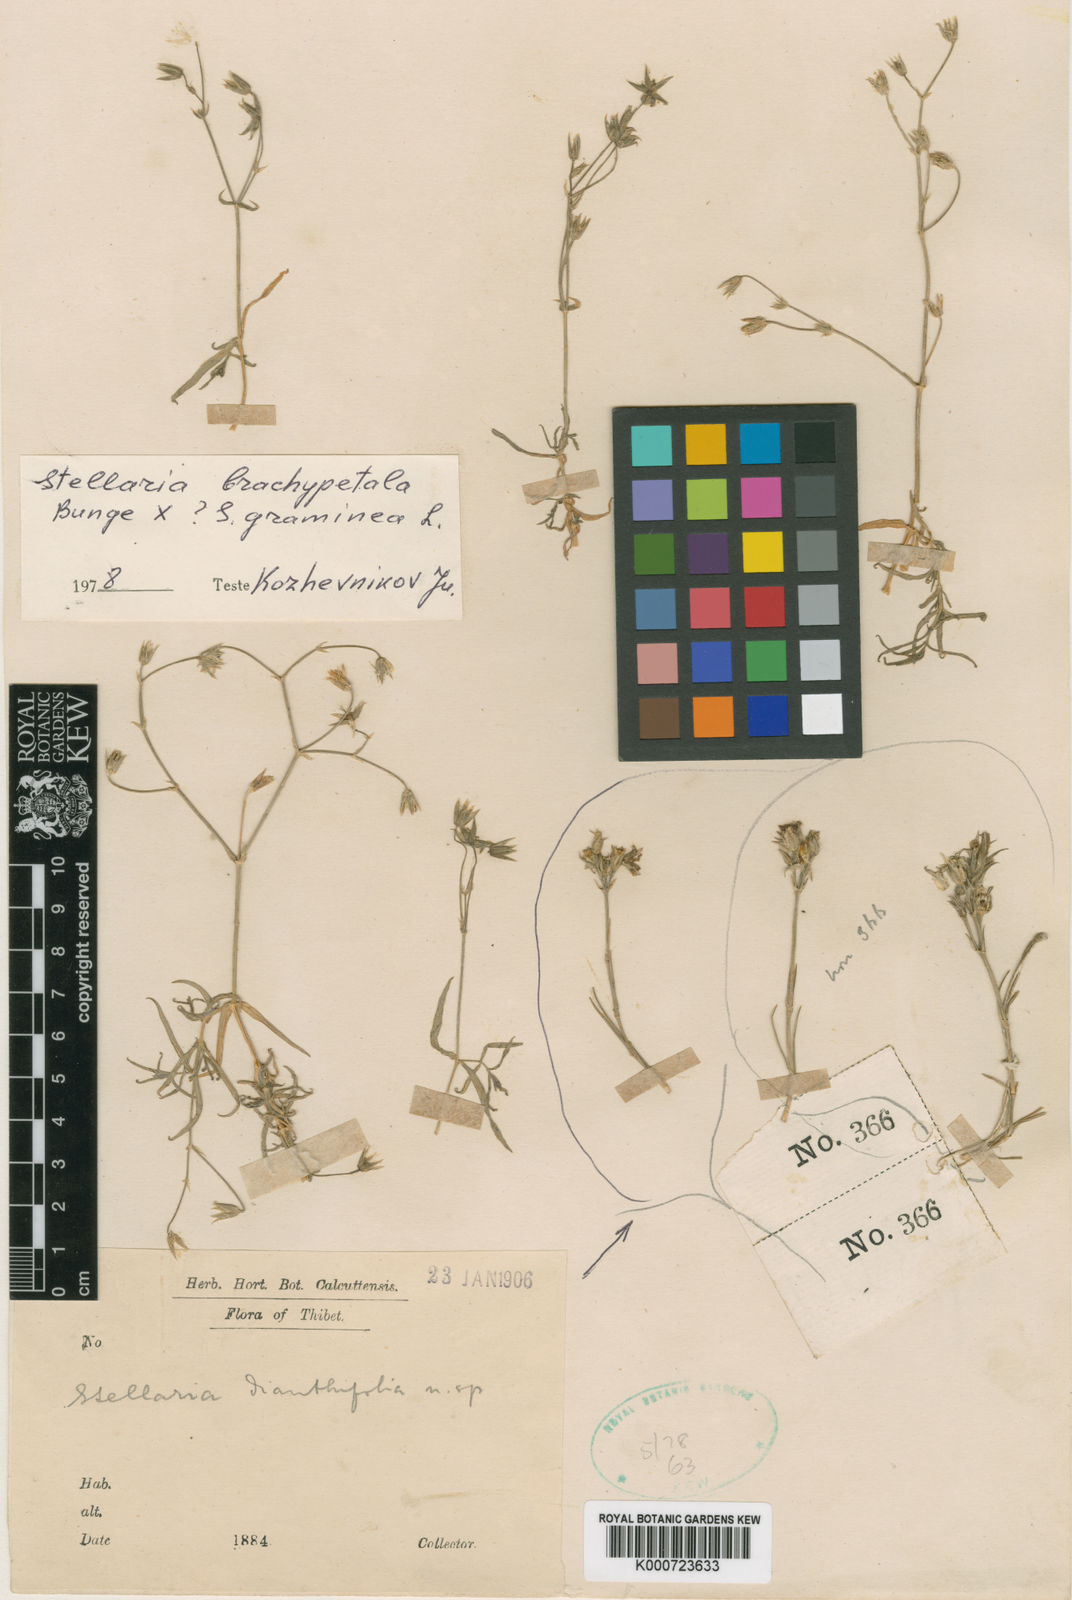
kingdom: Plantae
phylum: Tracheophyta
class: Magnoliopsida
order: Caryophyllales
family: Caryophyllaceae
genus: Stellaria
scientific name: Stellaria sitchana
